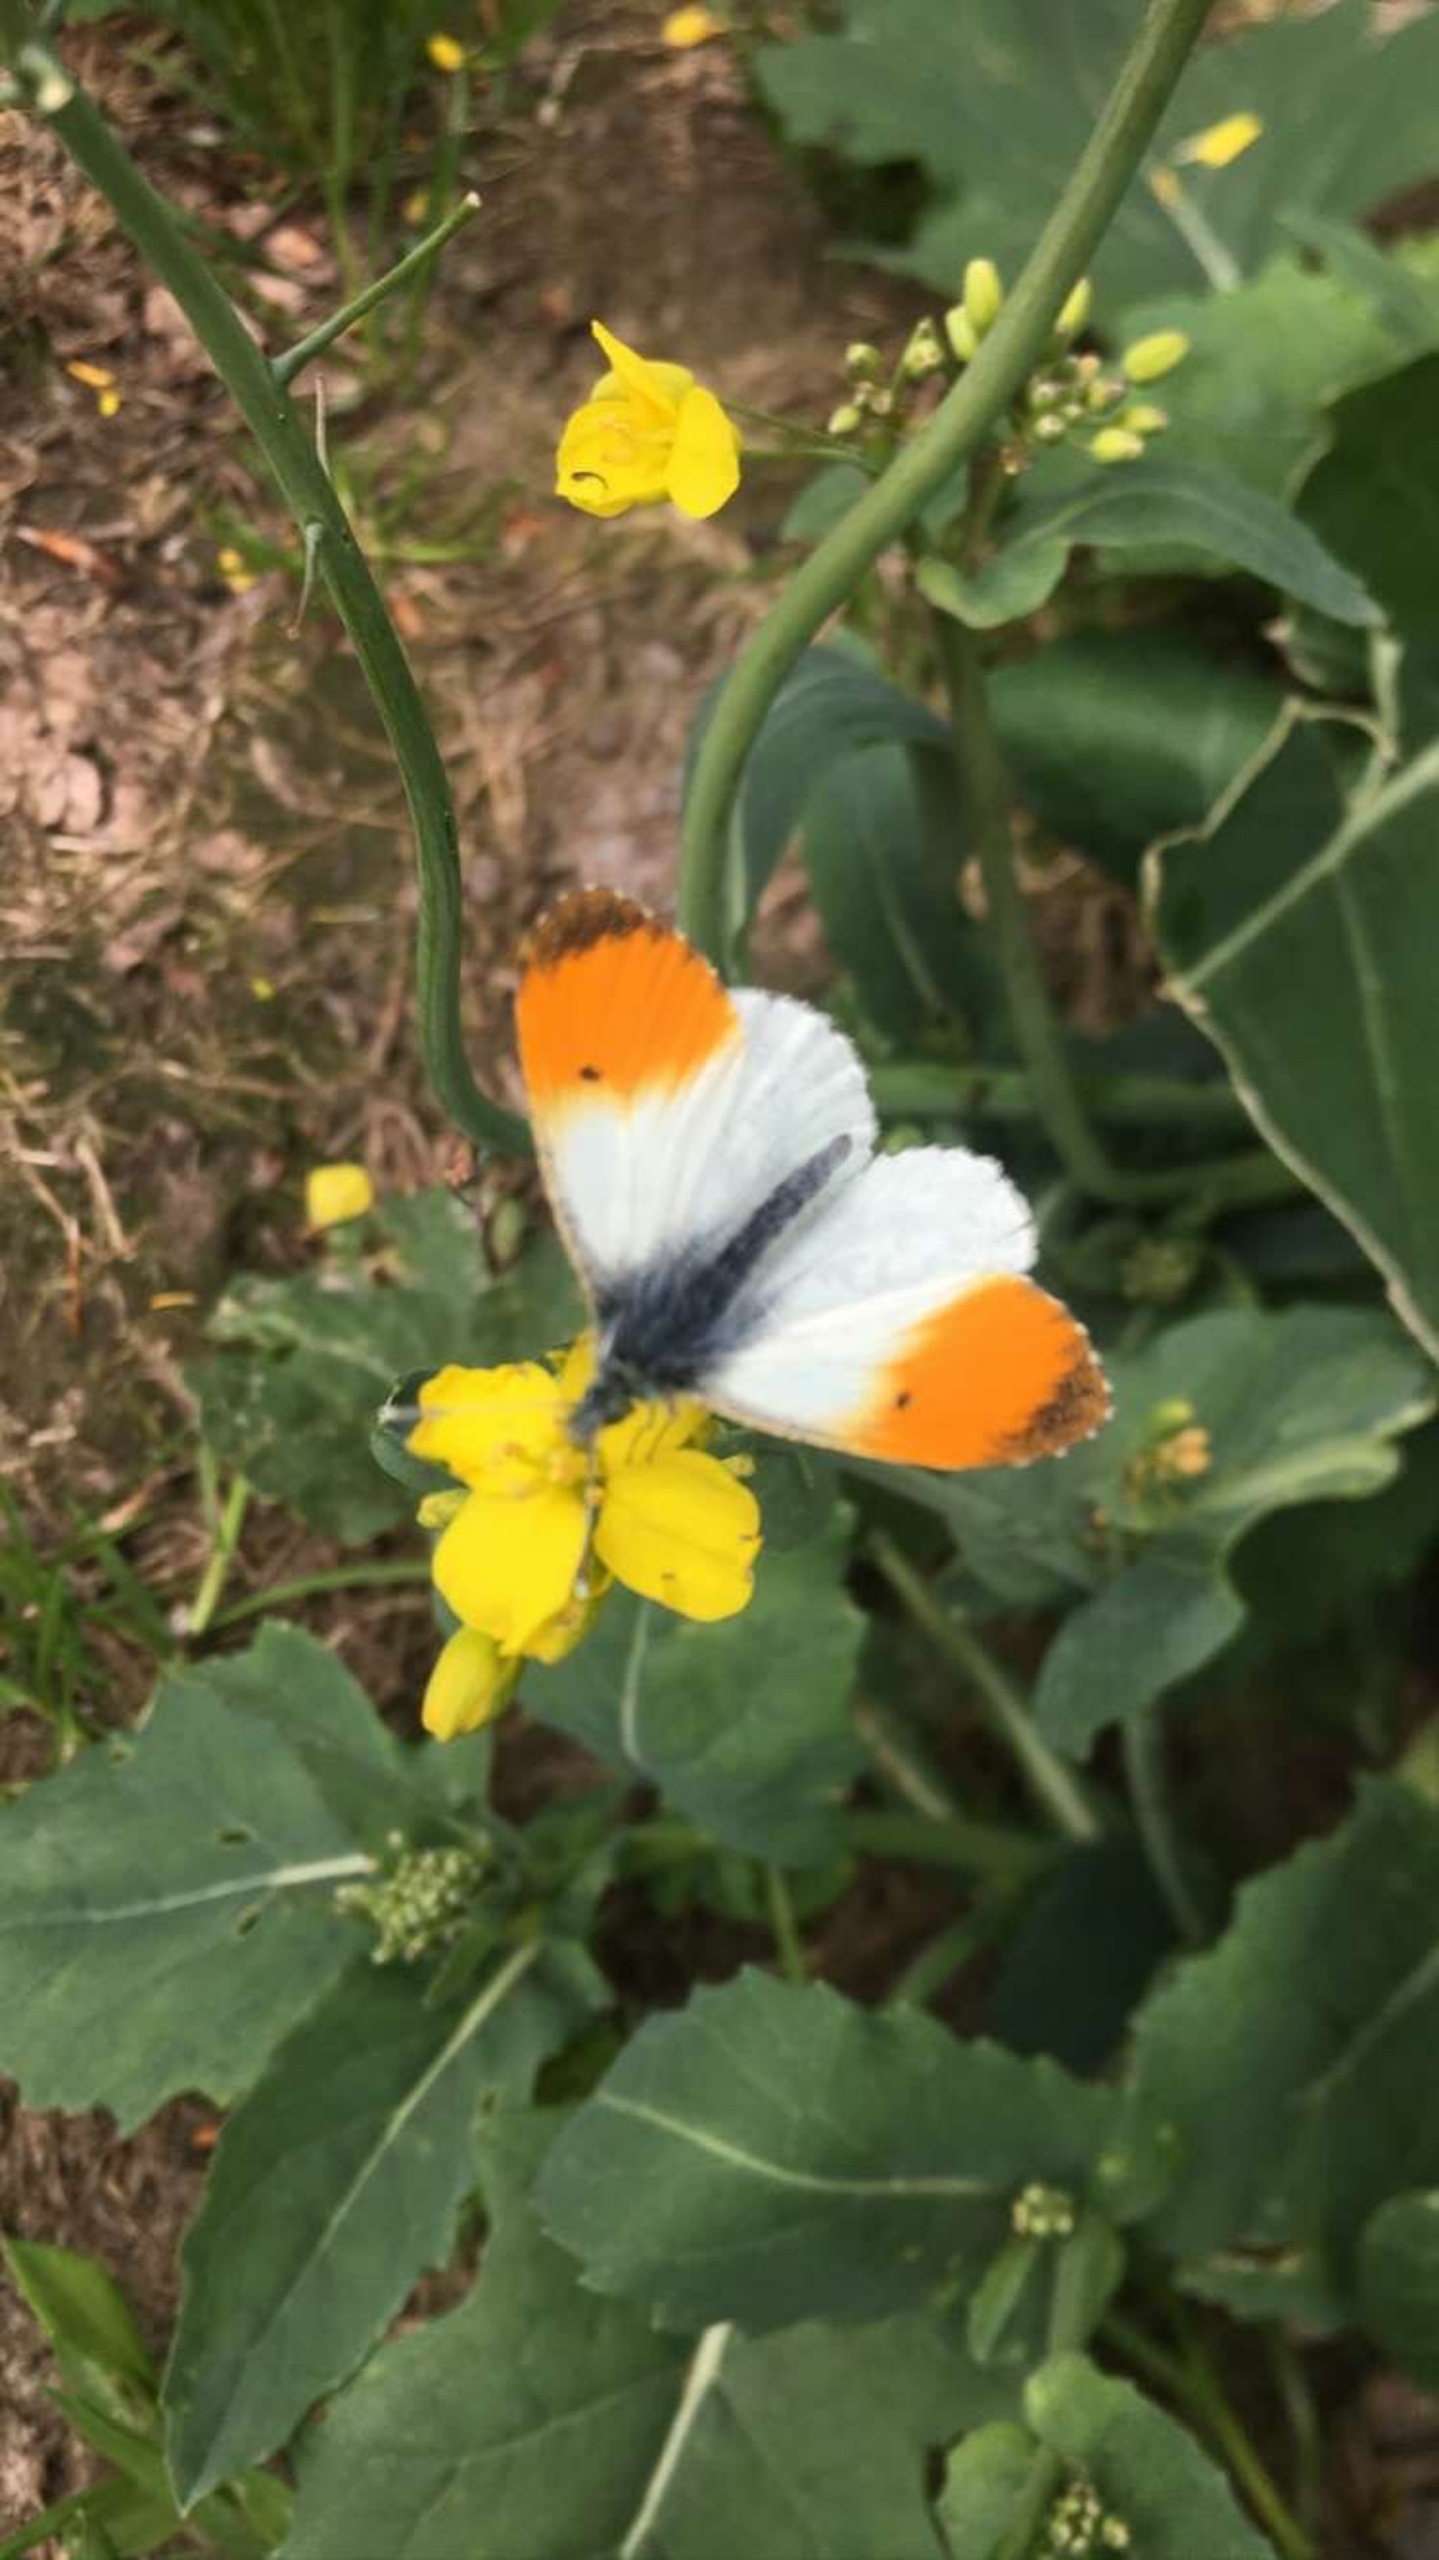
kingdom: Animalia
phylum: Arthropoda
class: Insecta
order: Lepidoptera
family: Pieridae
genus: Anthocharis
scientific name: Anthocharis cardamines
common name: Aurora
